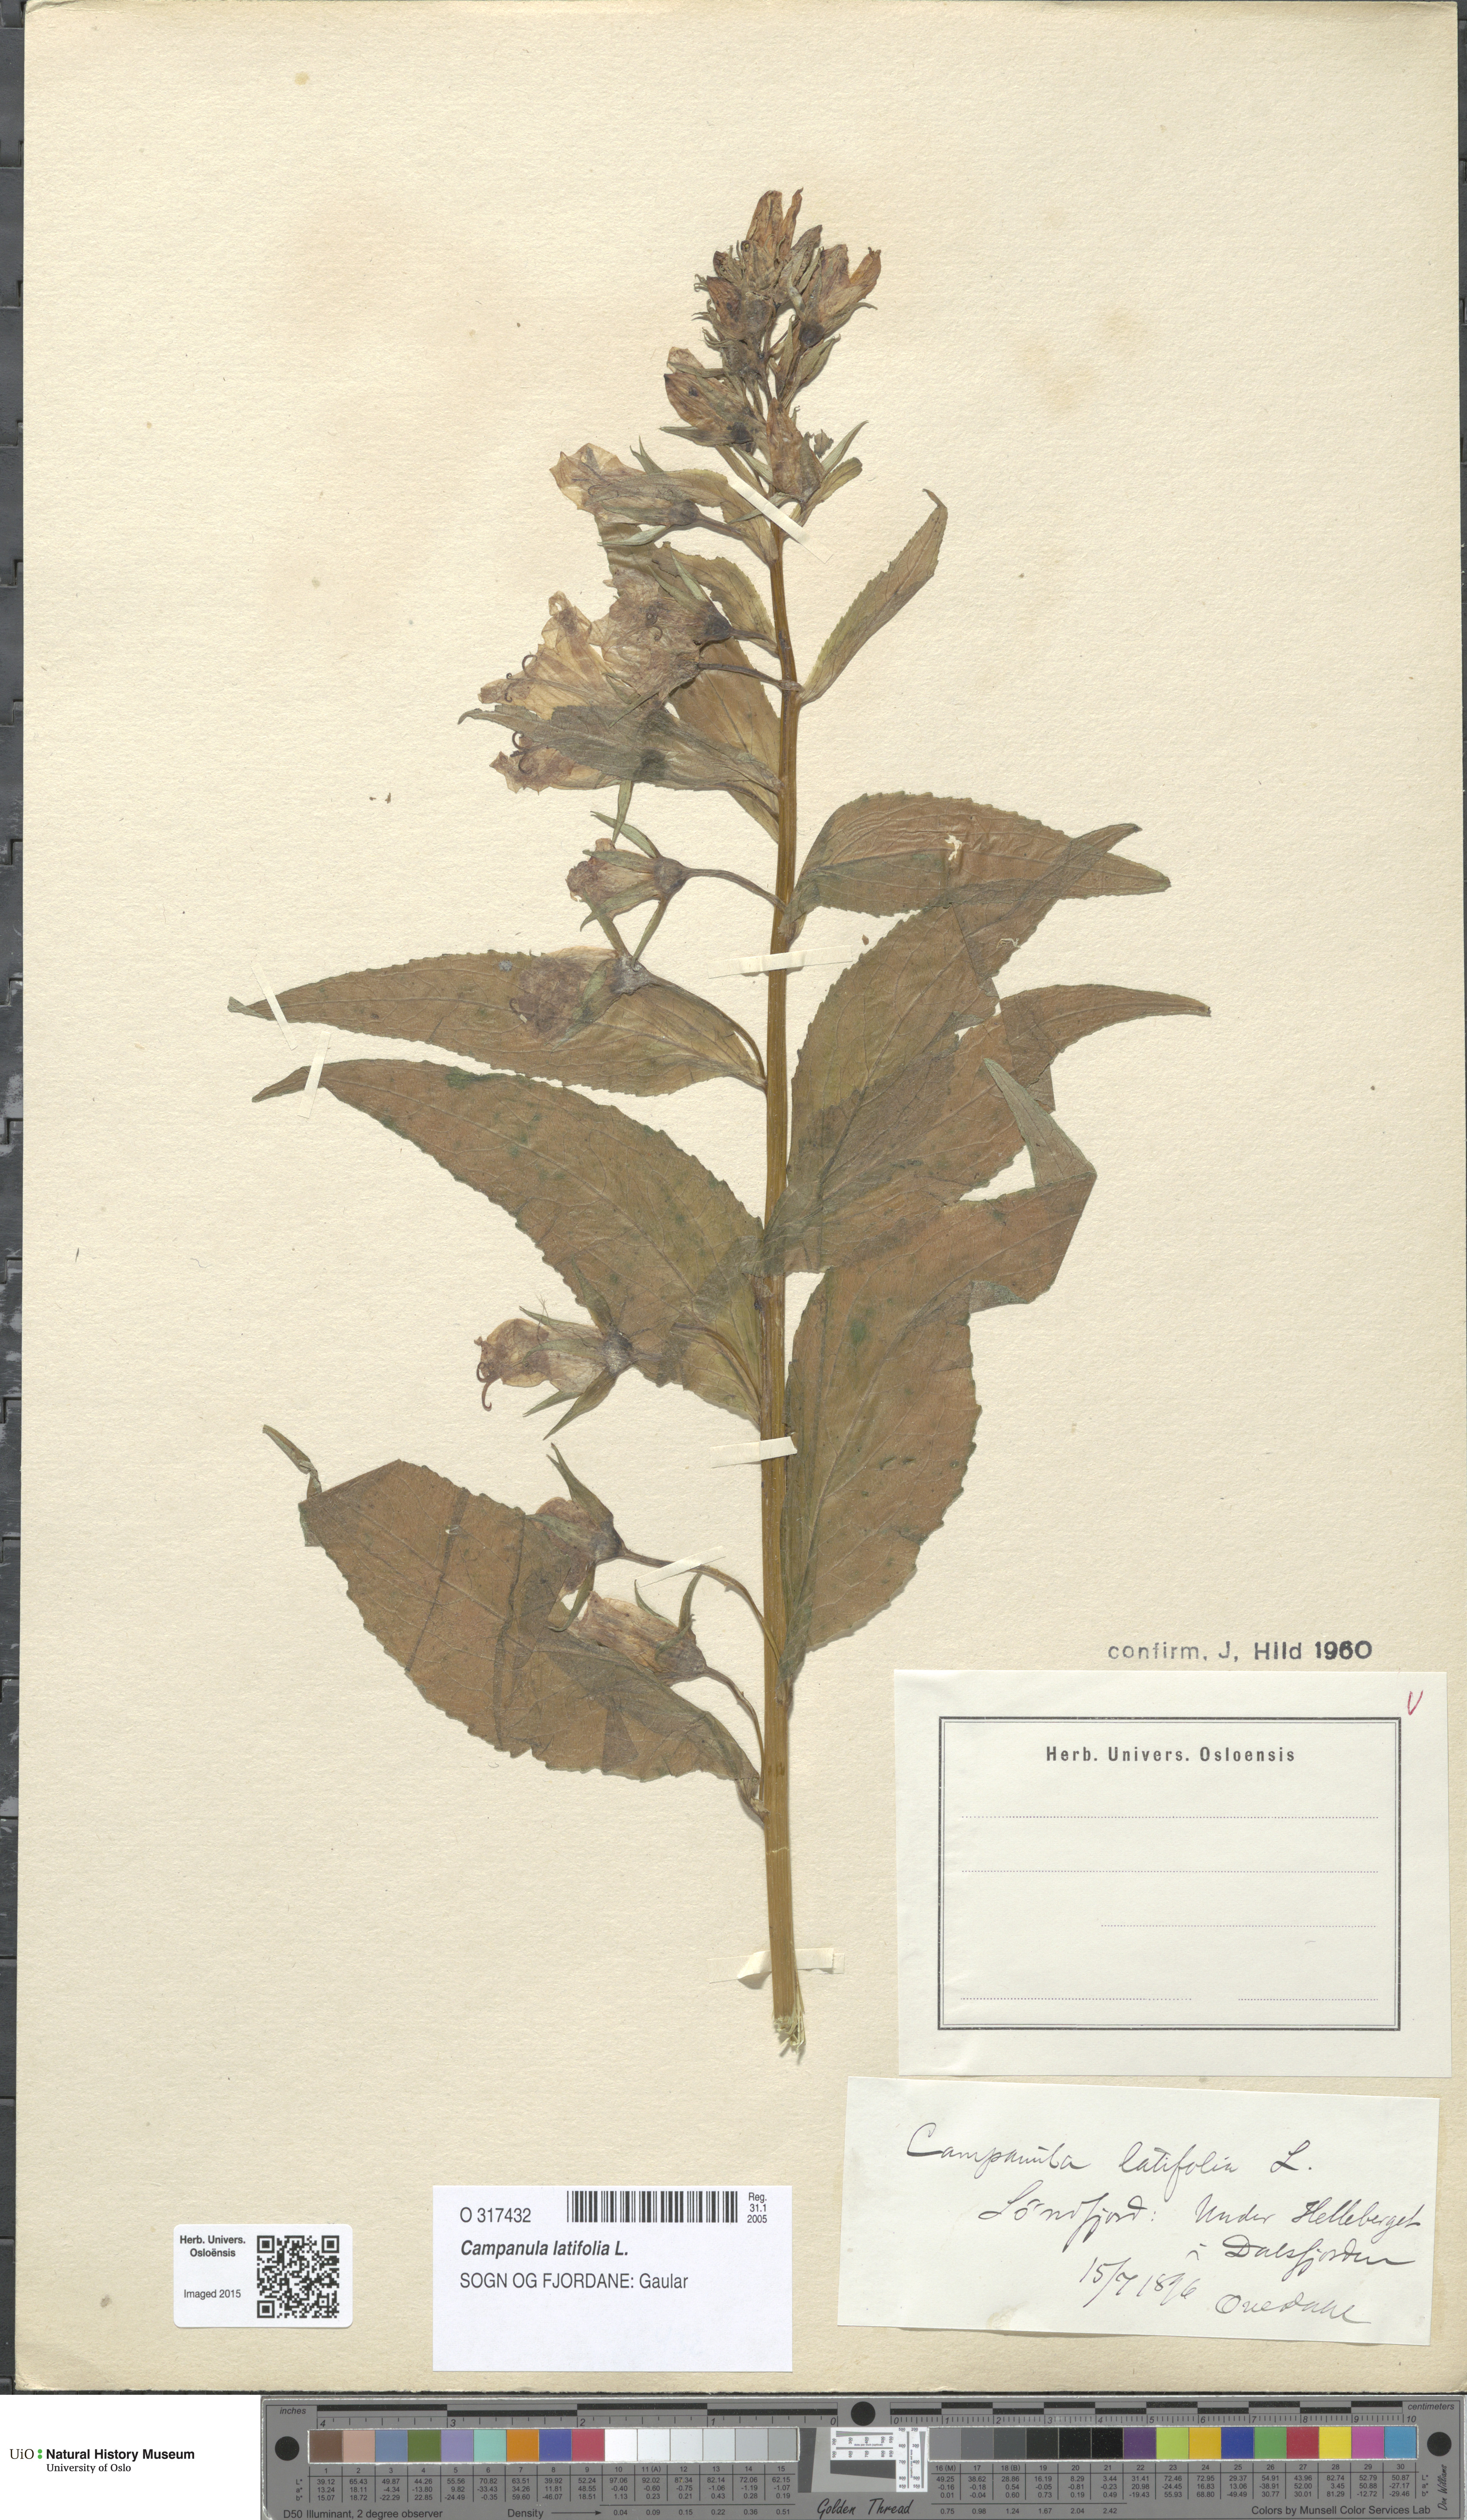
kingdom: Plantae
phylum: Tracheophyta
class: Magnoliopsida
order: Asterales
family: Campanulaceae
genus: Campanula
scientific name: Campanula latifolia
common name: Giant bellflower
